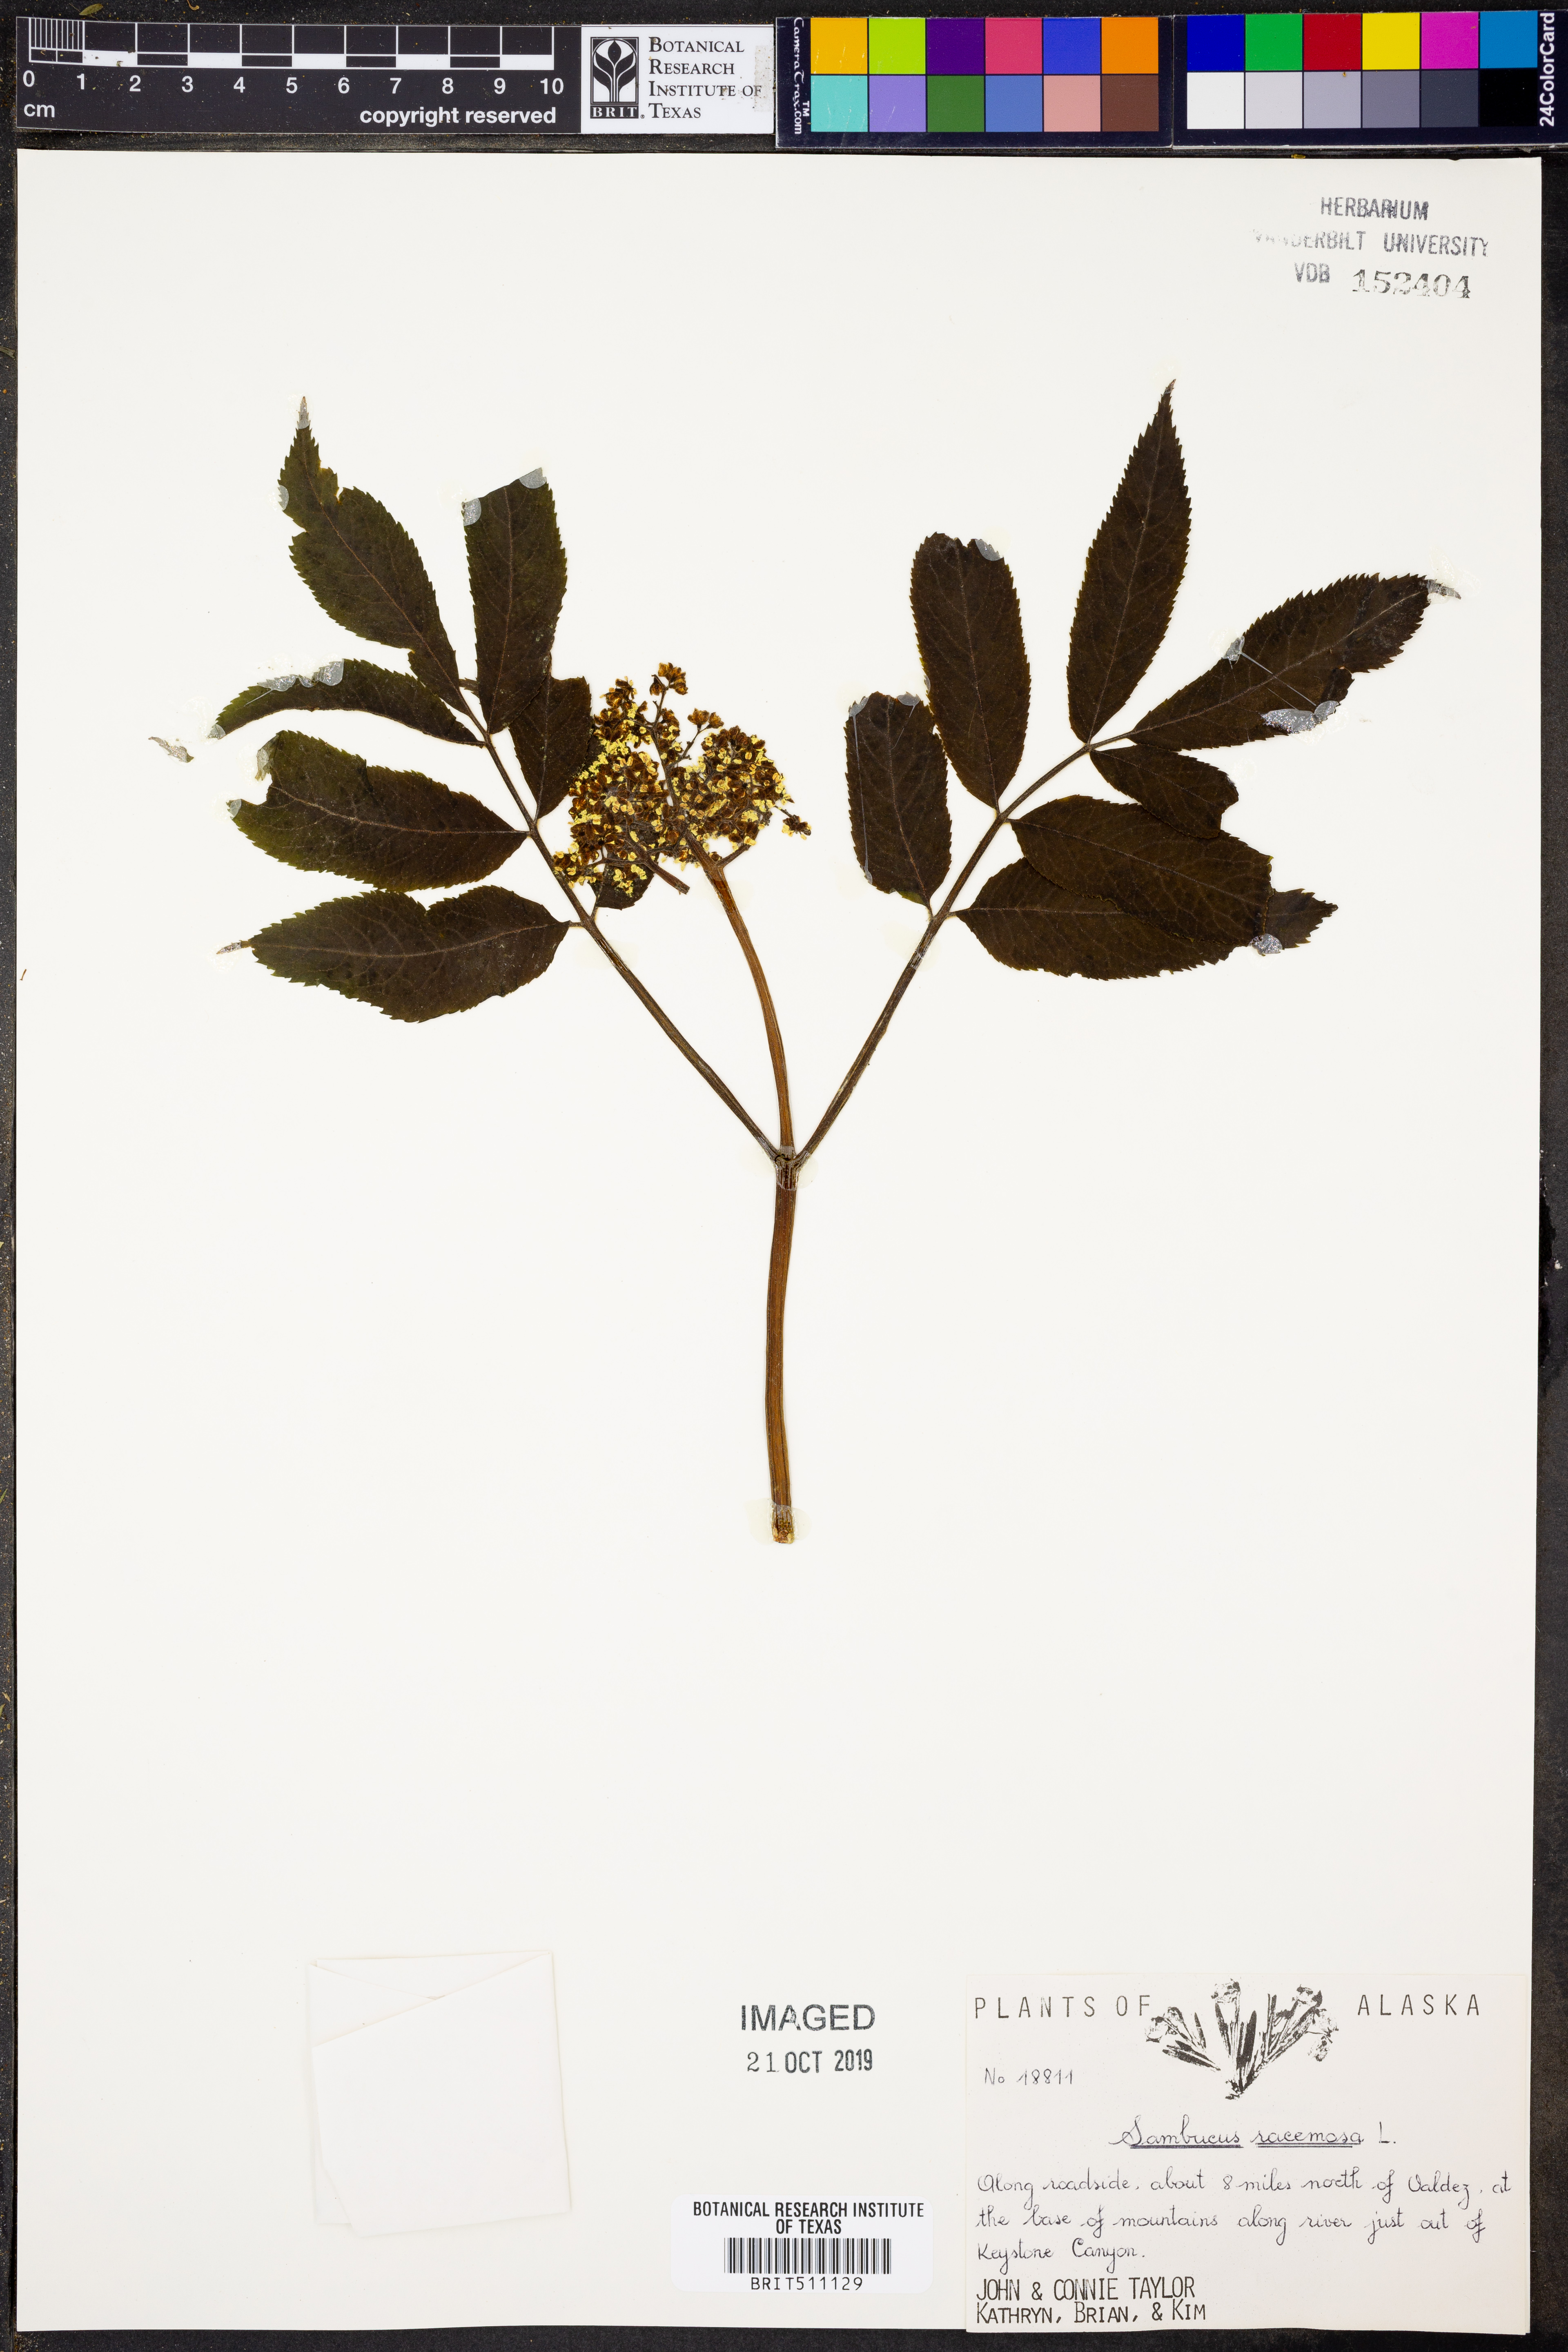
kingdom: Plantae
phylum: Tracheophyta
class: Magnoliopsida
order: Dipsacales
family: Viburnaceae
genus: Sambucus
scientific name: Sambucus racemosa
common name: Red-berried elder
